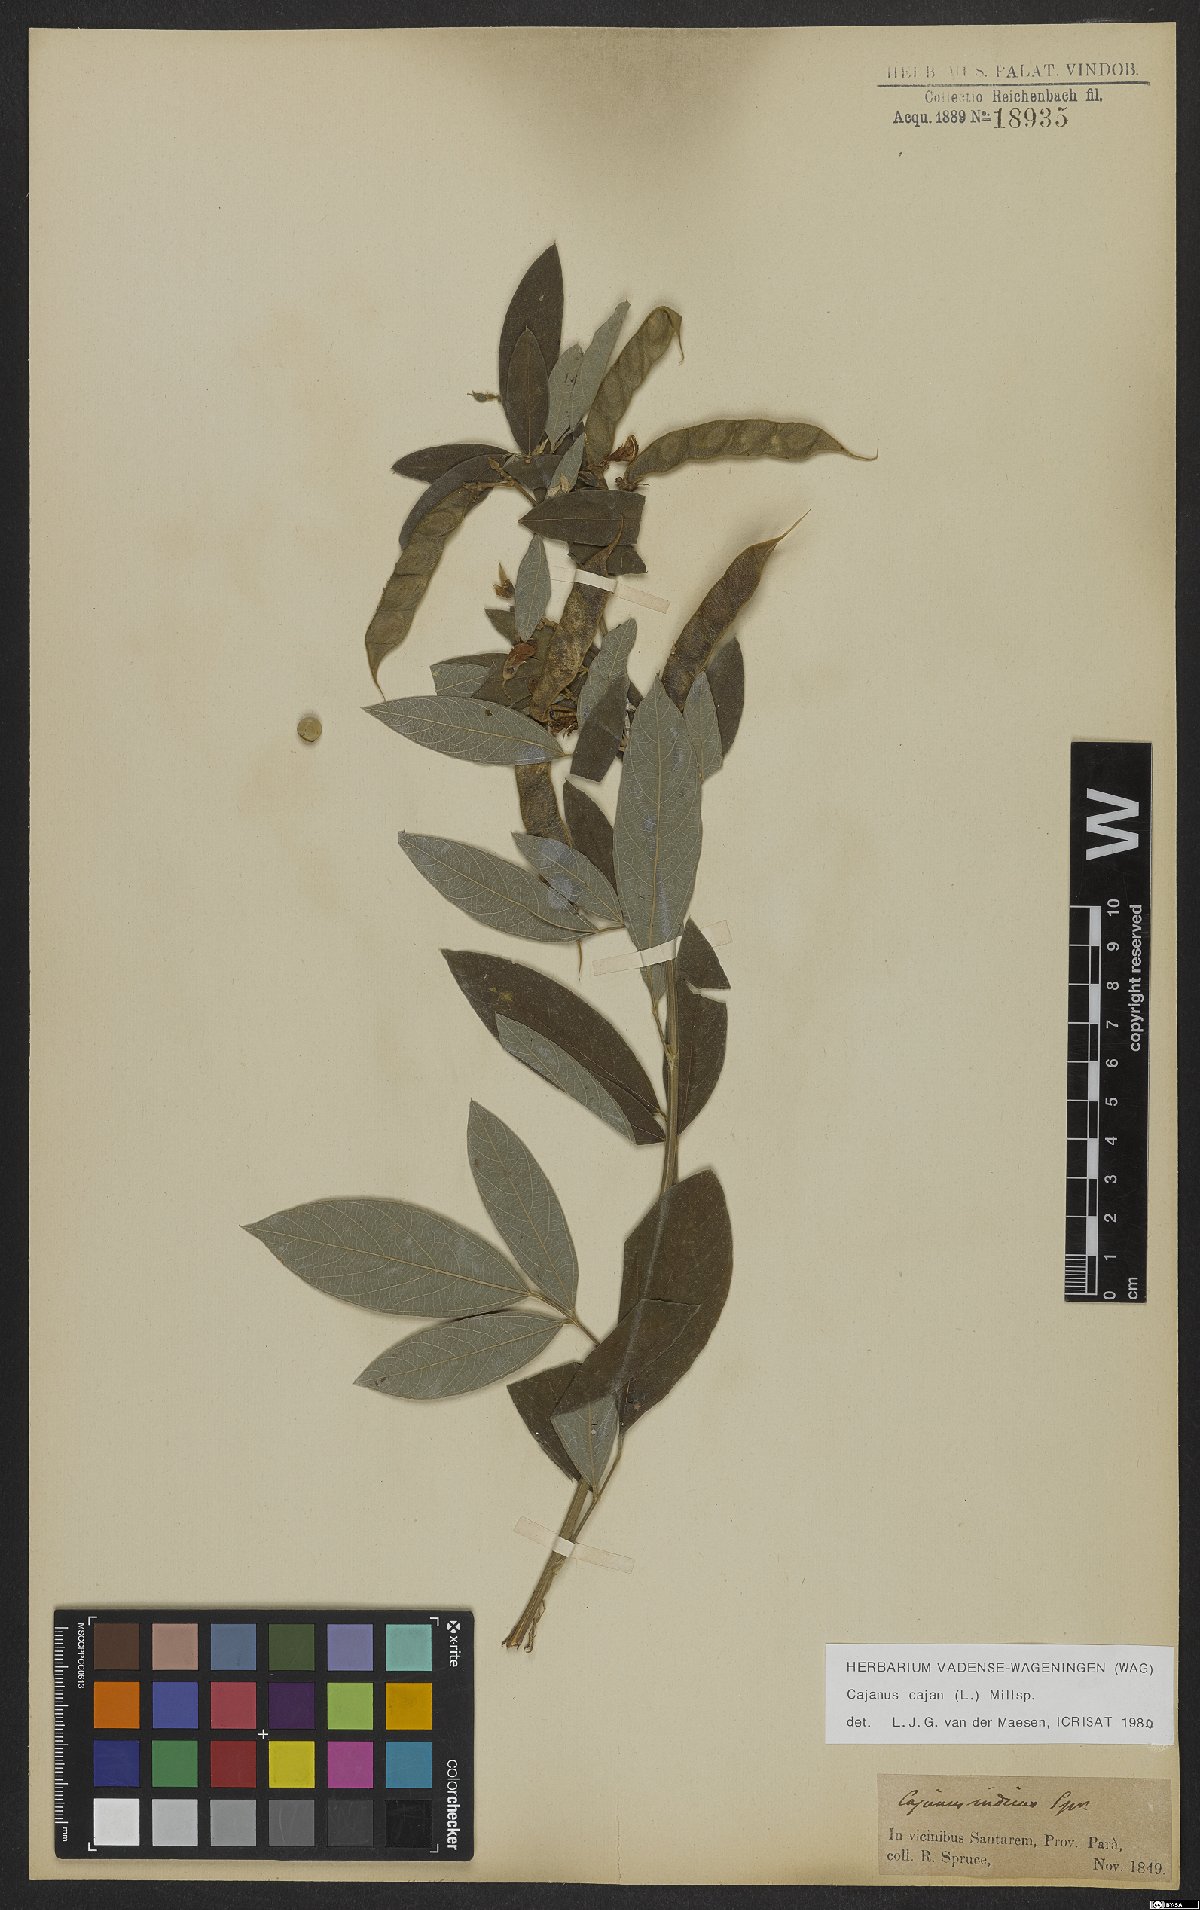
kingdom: Plantae
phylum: Tracheophyta
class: Magnoliopsida
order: Fabales
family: Fabaceae
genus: Cajanus
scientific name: Cajanus cajan
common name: Pigeonpea
